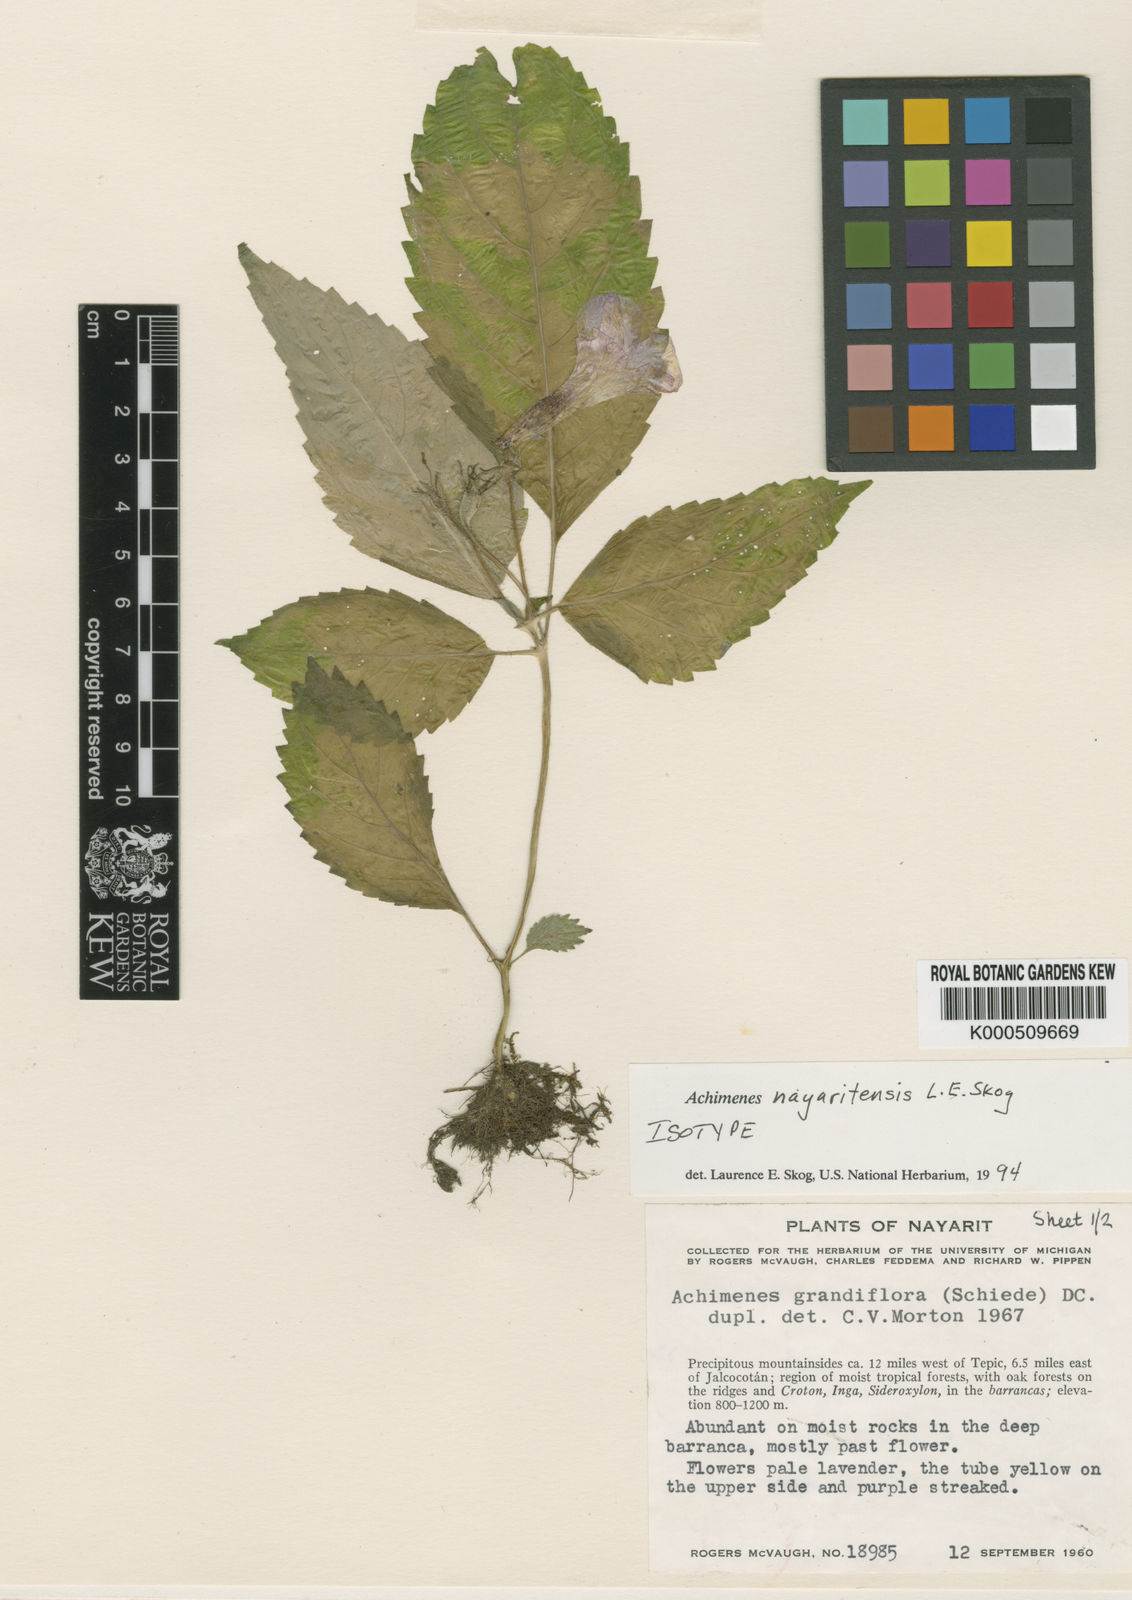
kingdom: Plantae
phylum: Tracheophyta
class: Magnoliopsida
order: Lamiales
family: Gesneriaceae
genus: Achimenes
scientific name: Achimenes nayaritensis
